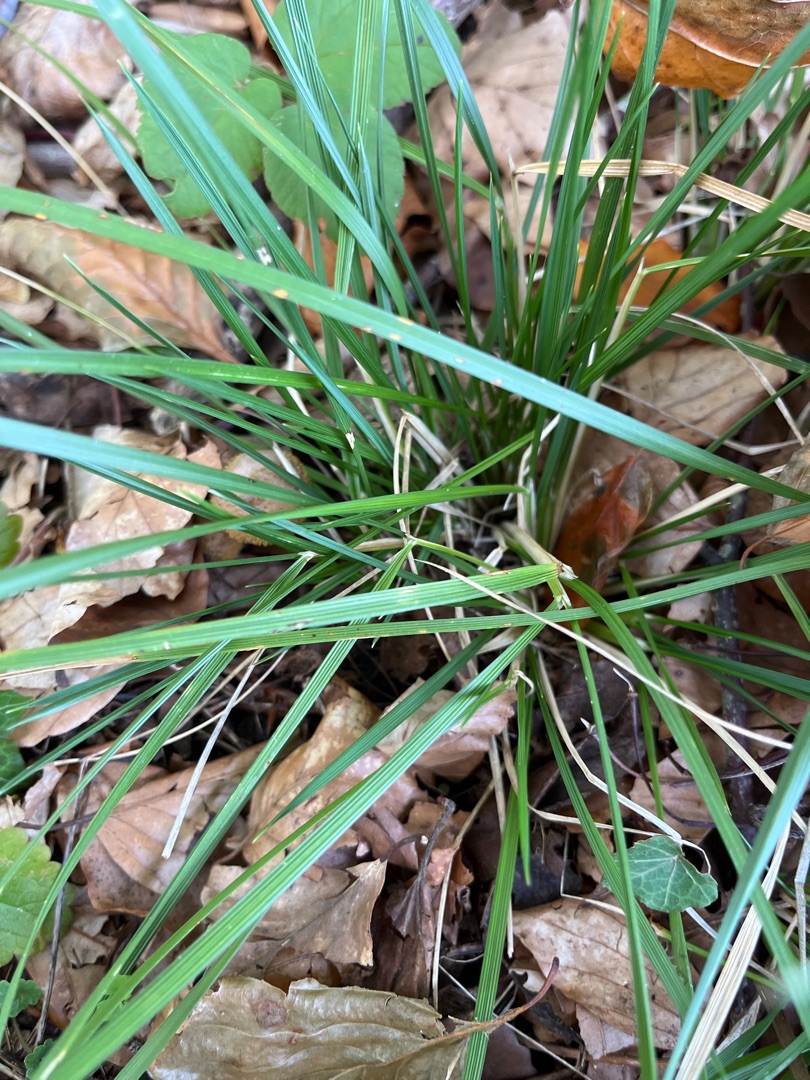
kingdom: Plantae
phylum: Tracheophyta
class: Liliopsida
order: Poales
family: Poaceae
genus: Deschampsia
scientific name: Deschampsia cespitosa
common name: Mose-bunke
